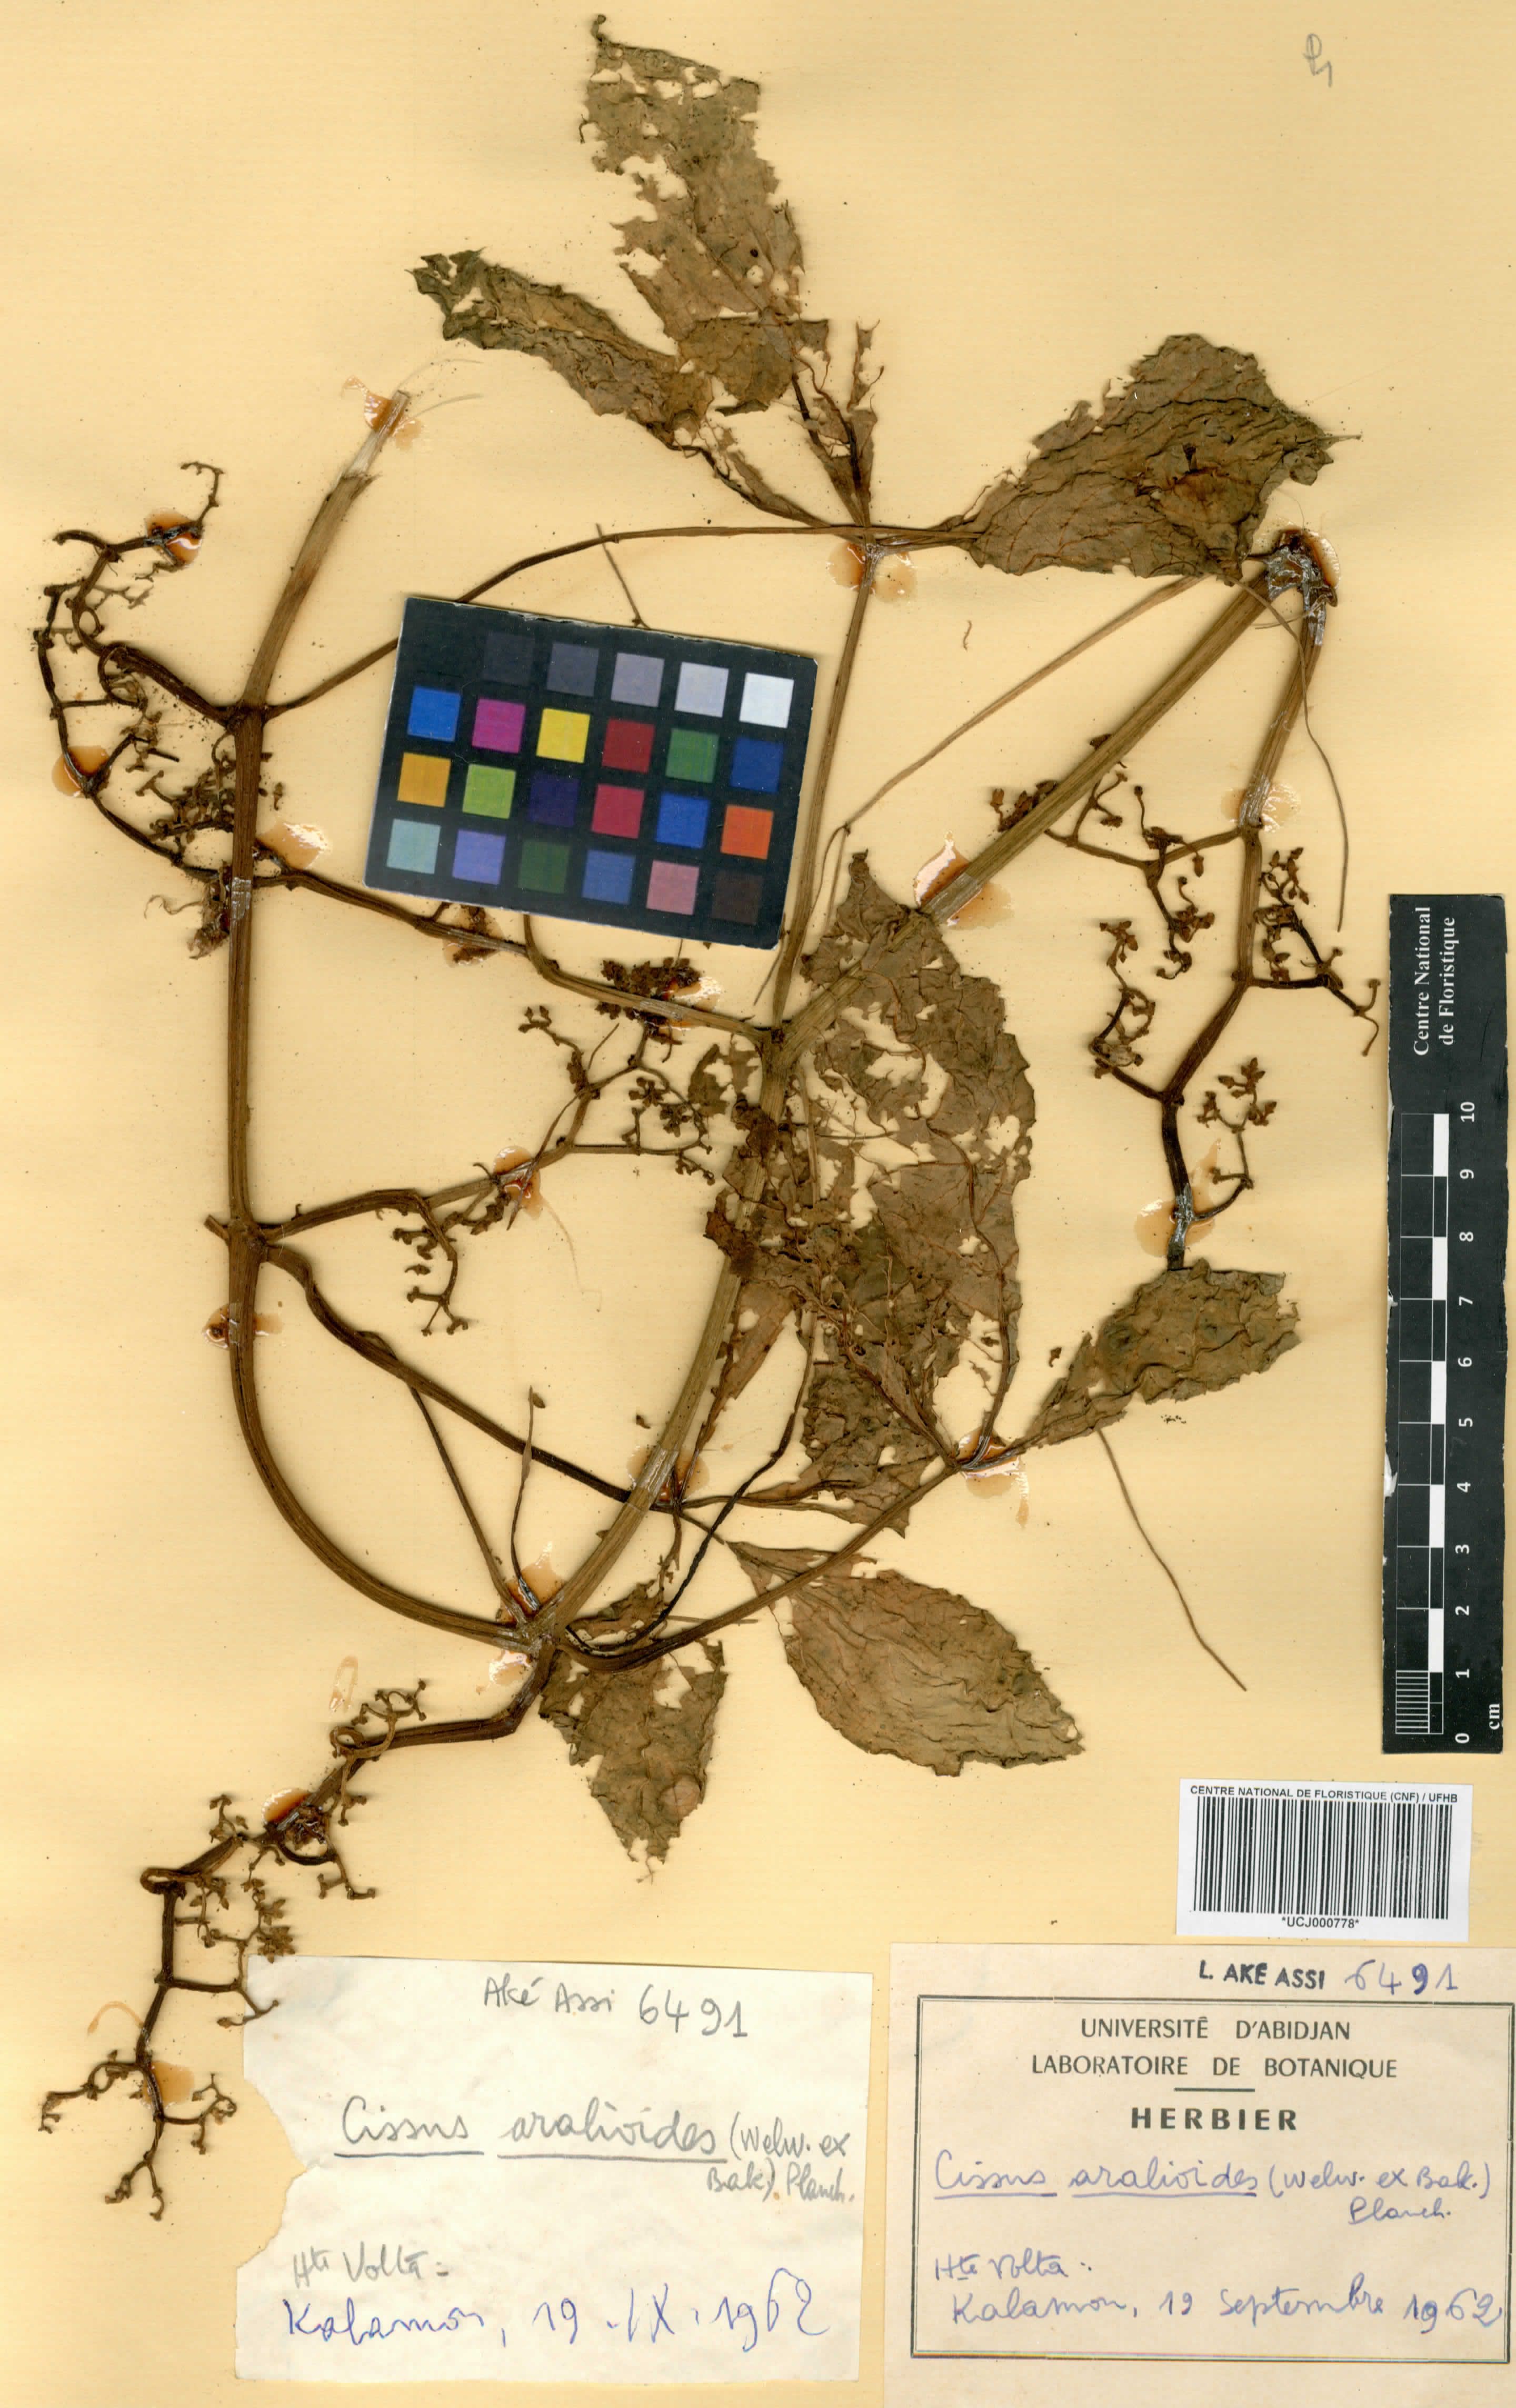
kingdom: Plantae
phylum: Tracheophyta
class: Magnoliopsida
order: Vitales
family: Vitaceae
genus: Cissus
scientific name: Cissus aralioides
